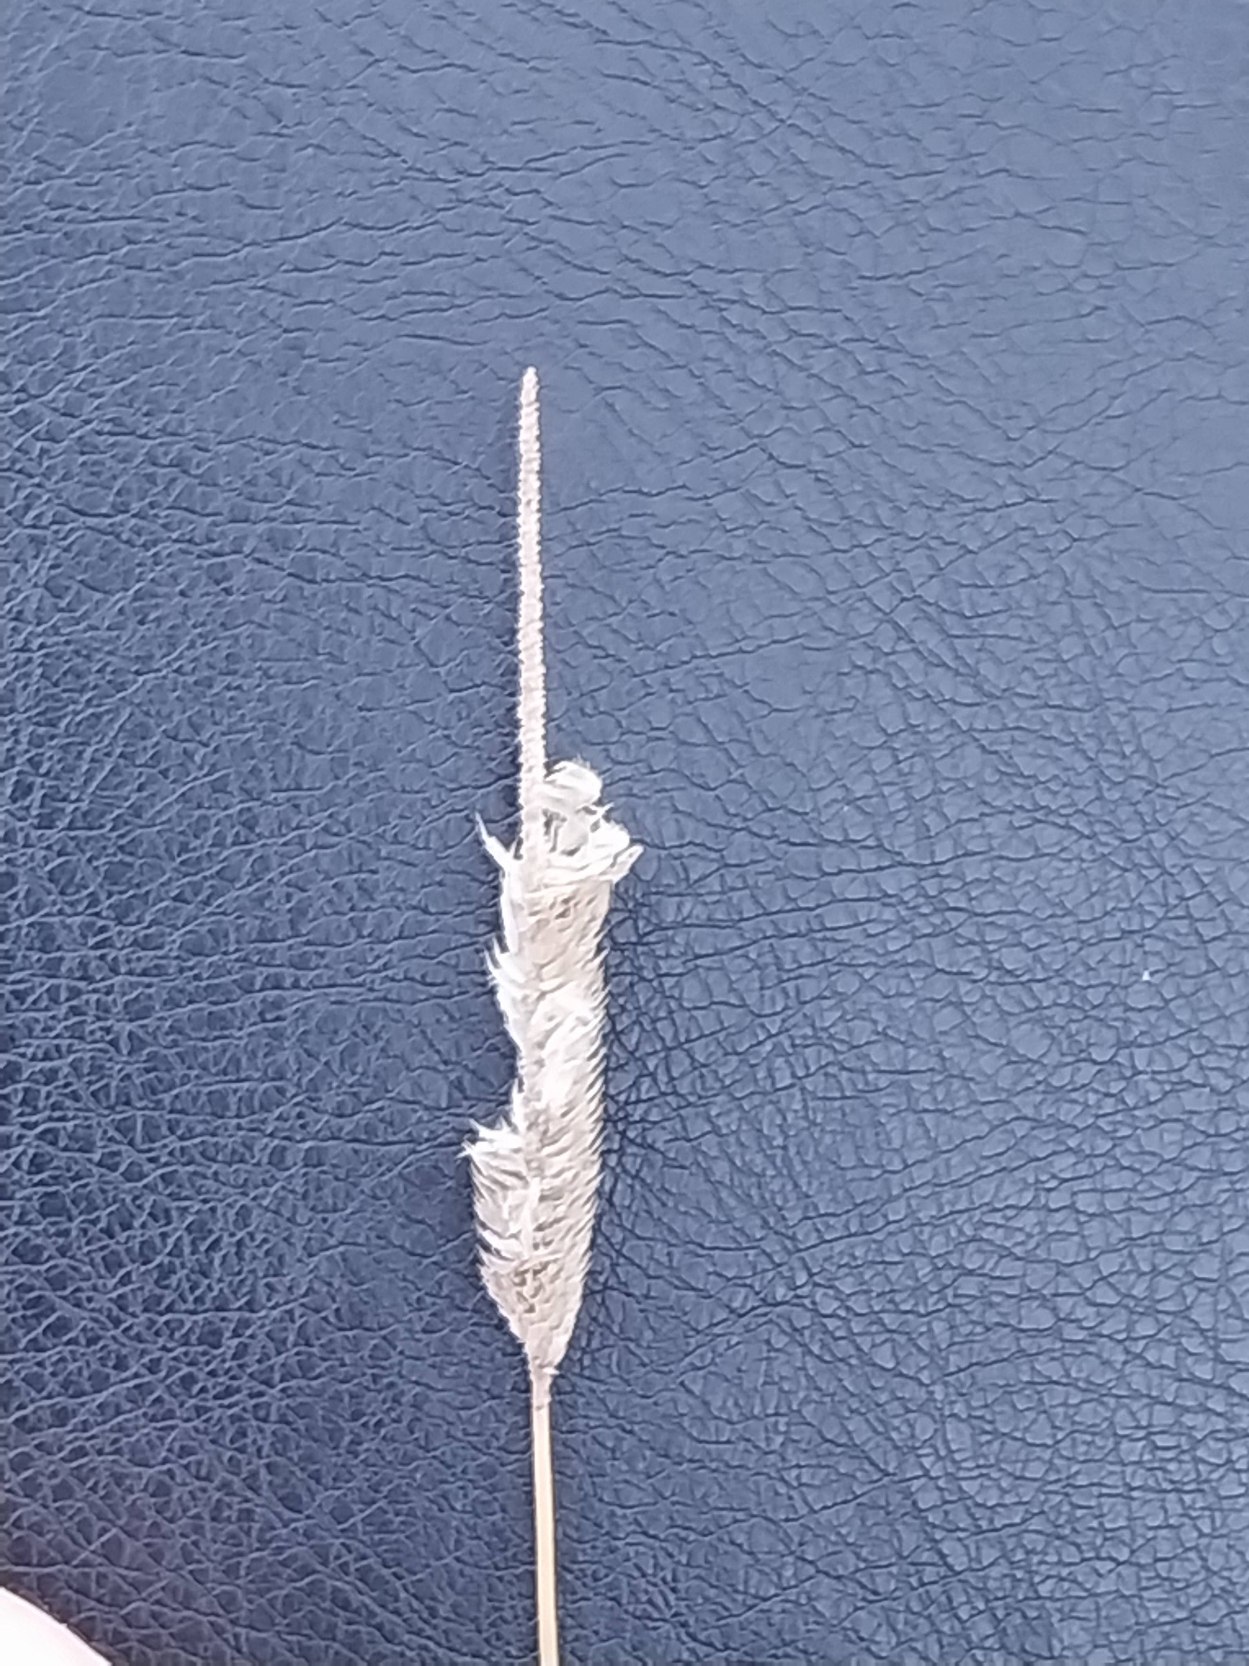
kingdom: Plantae
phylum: Tracheophyta
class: Liliopsida
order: Poales
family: Poaceae
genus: Phleum
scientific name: Phleum pratense
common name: Eng-rottehale
